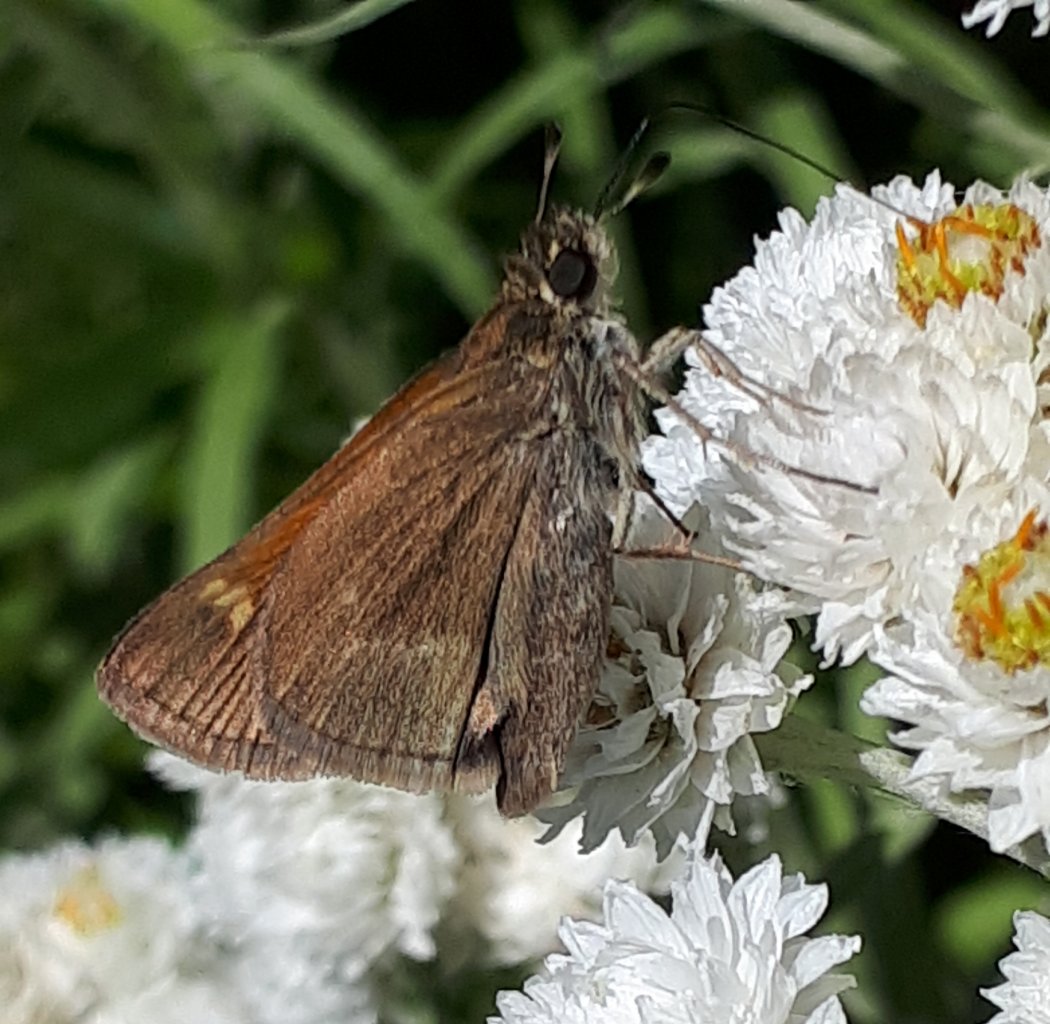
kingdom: Animalia
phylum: Arthropoda
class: Insecta
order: Lepidoptera
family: Hesperiidae
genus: Polites
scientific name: Polites themistocles
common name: Tawny-edged Skipper
